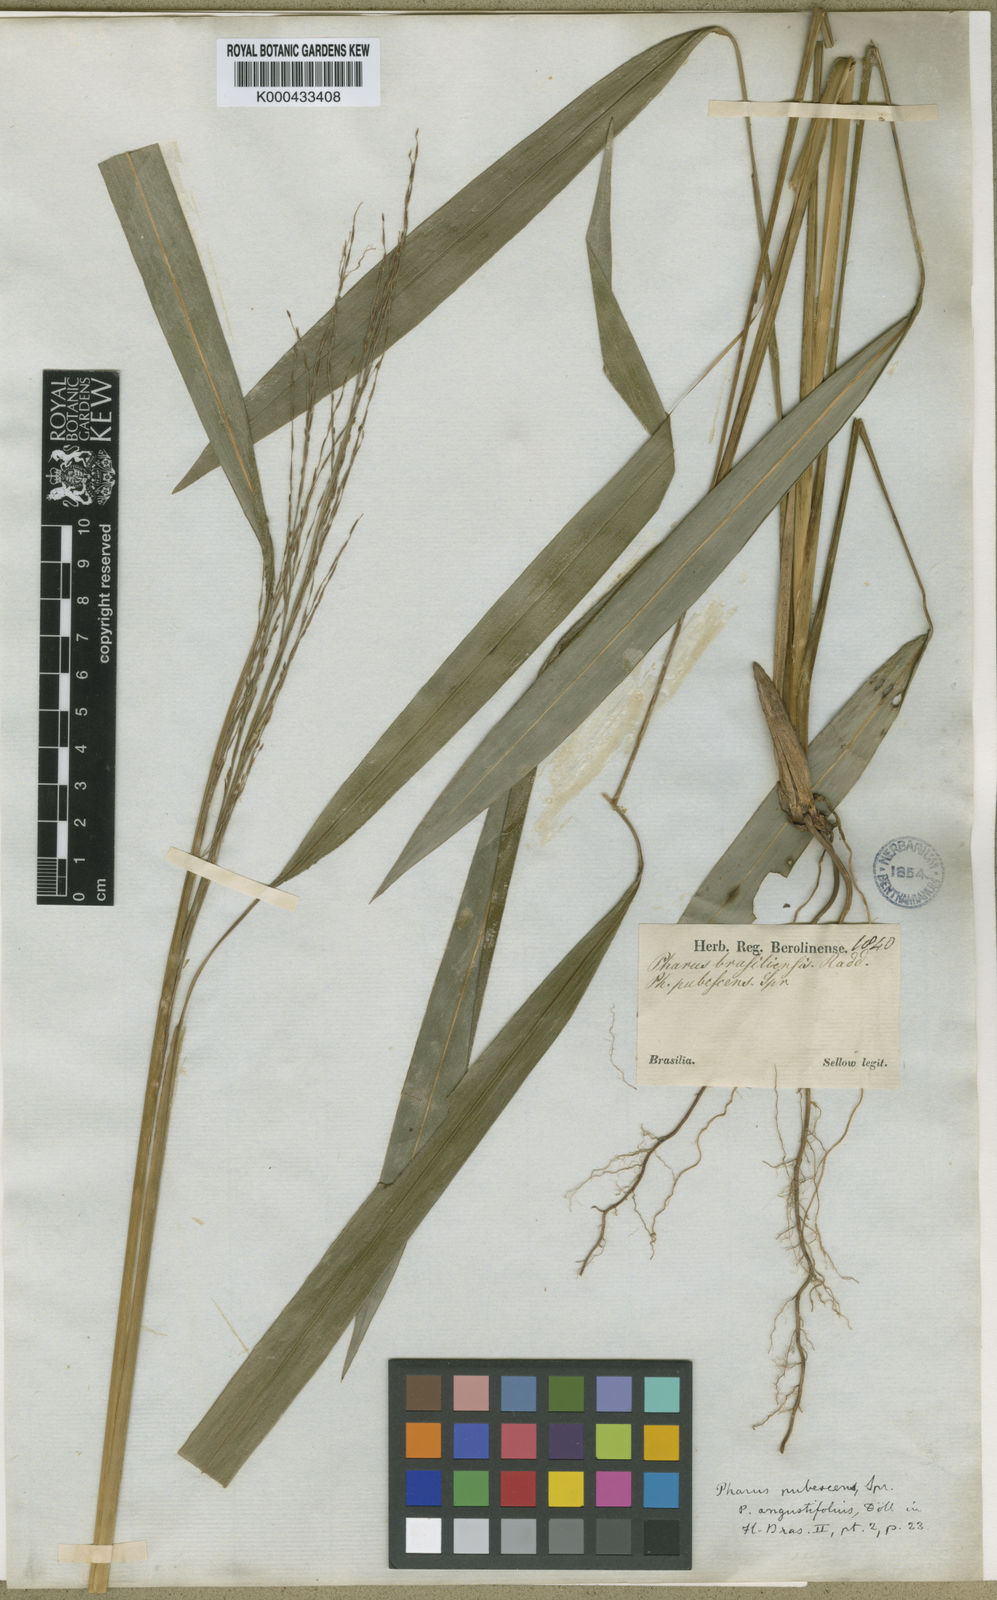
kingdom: Plantae
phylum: Tracheophyta
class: Liliopsida
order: Poales
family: Poaceae
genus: Pharus
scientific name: Pharus lappulaceus
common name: Creeping leafstalk grass
